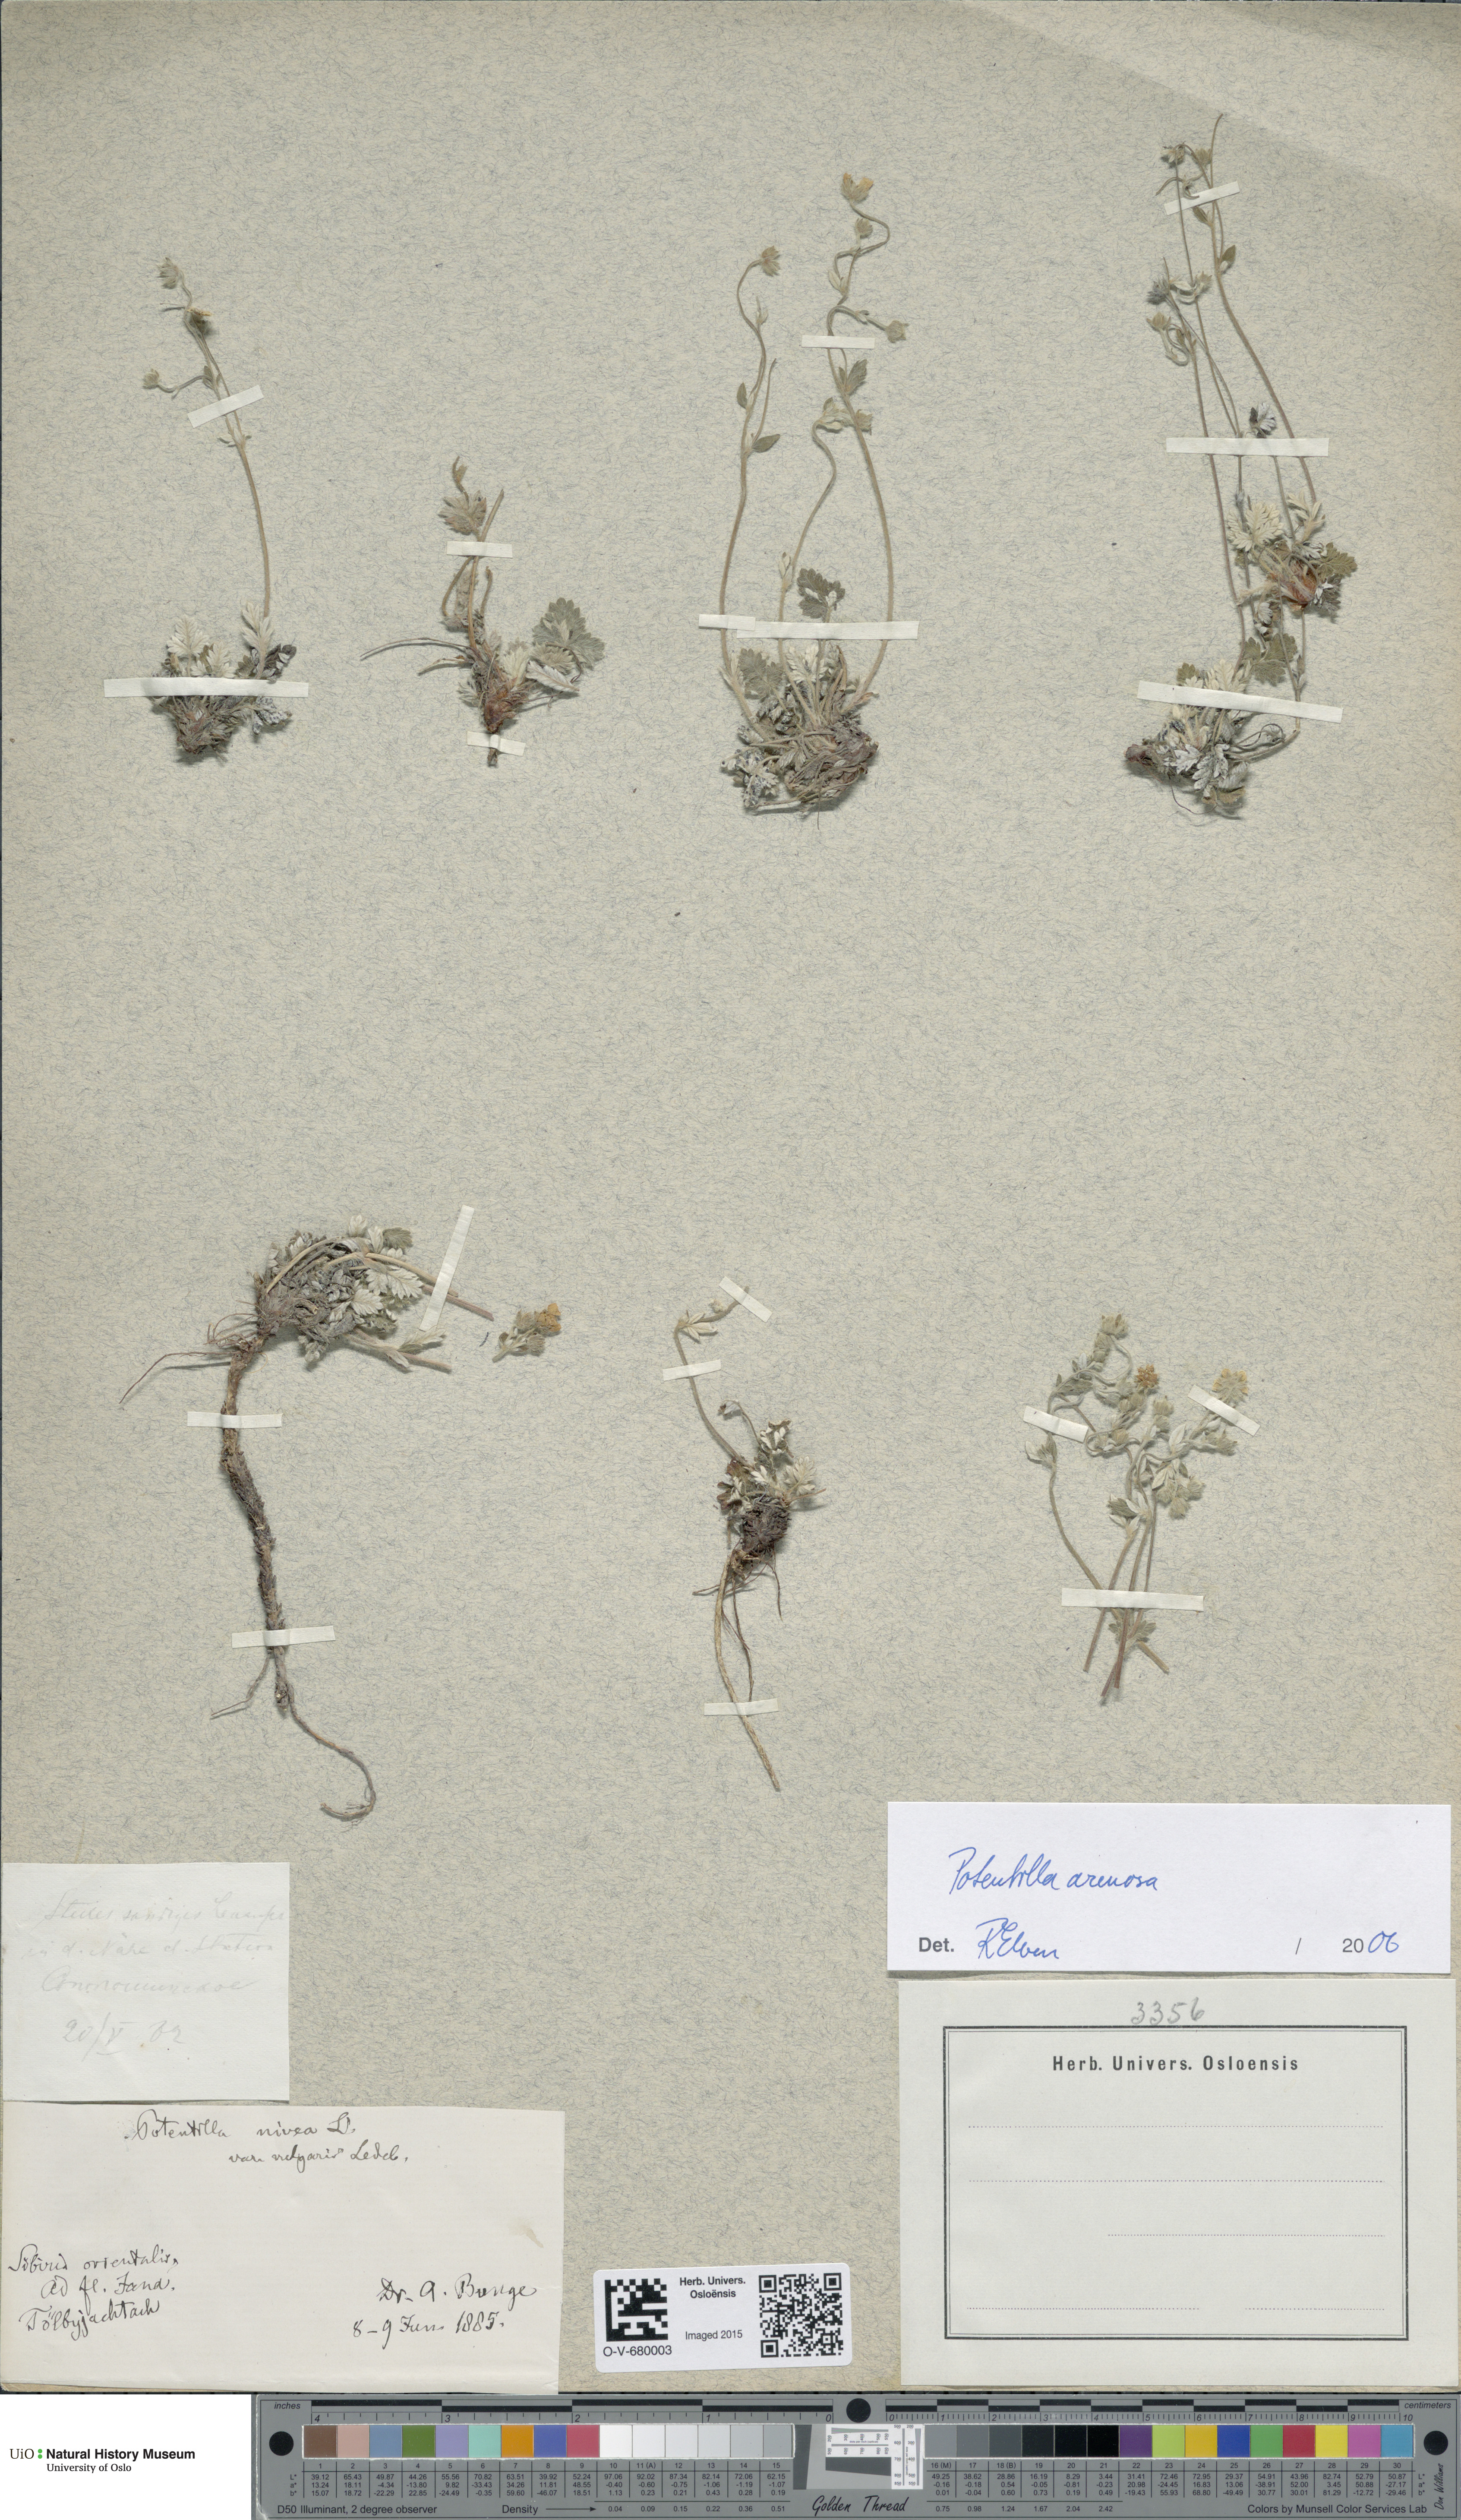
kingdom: Plantae
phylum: Tracheophyta
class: Magnoliopsida
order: Rosales
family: Rosaceae
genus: Potentilla
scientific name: Potentilla arenosa
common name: Bluff cinquefoil
